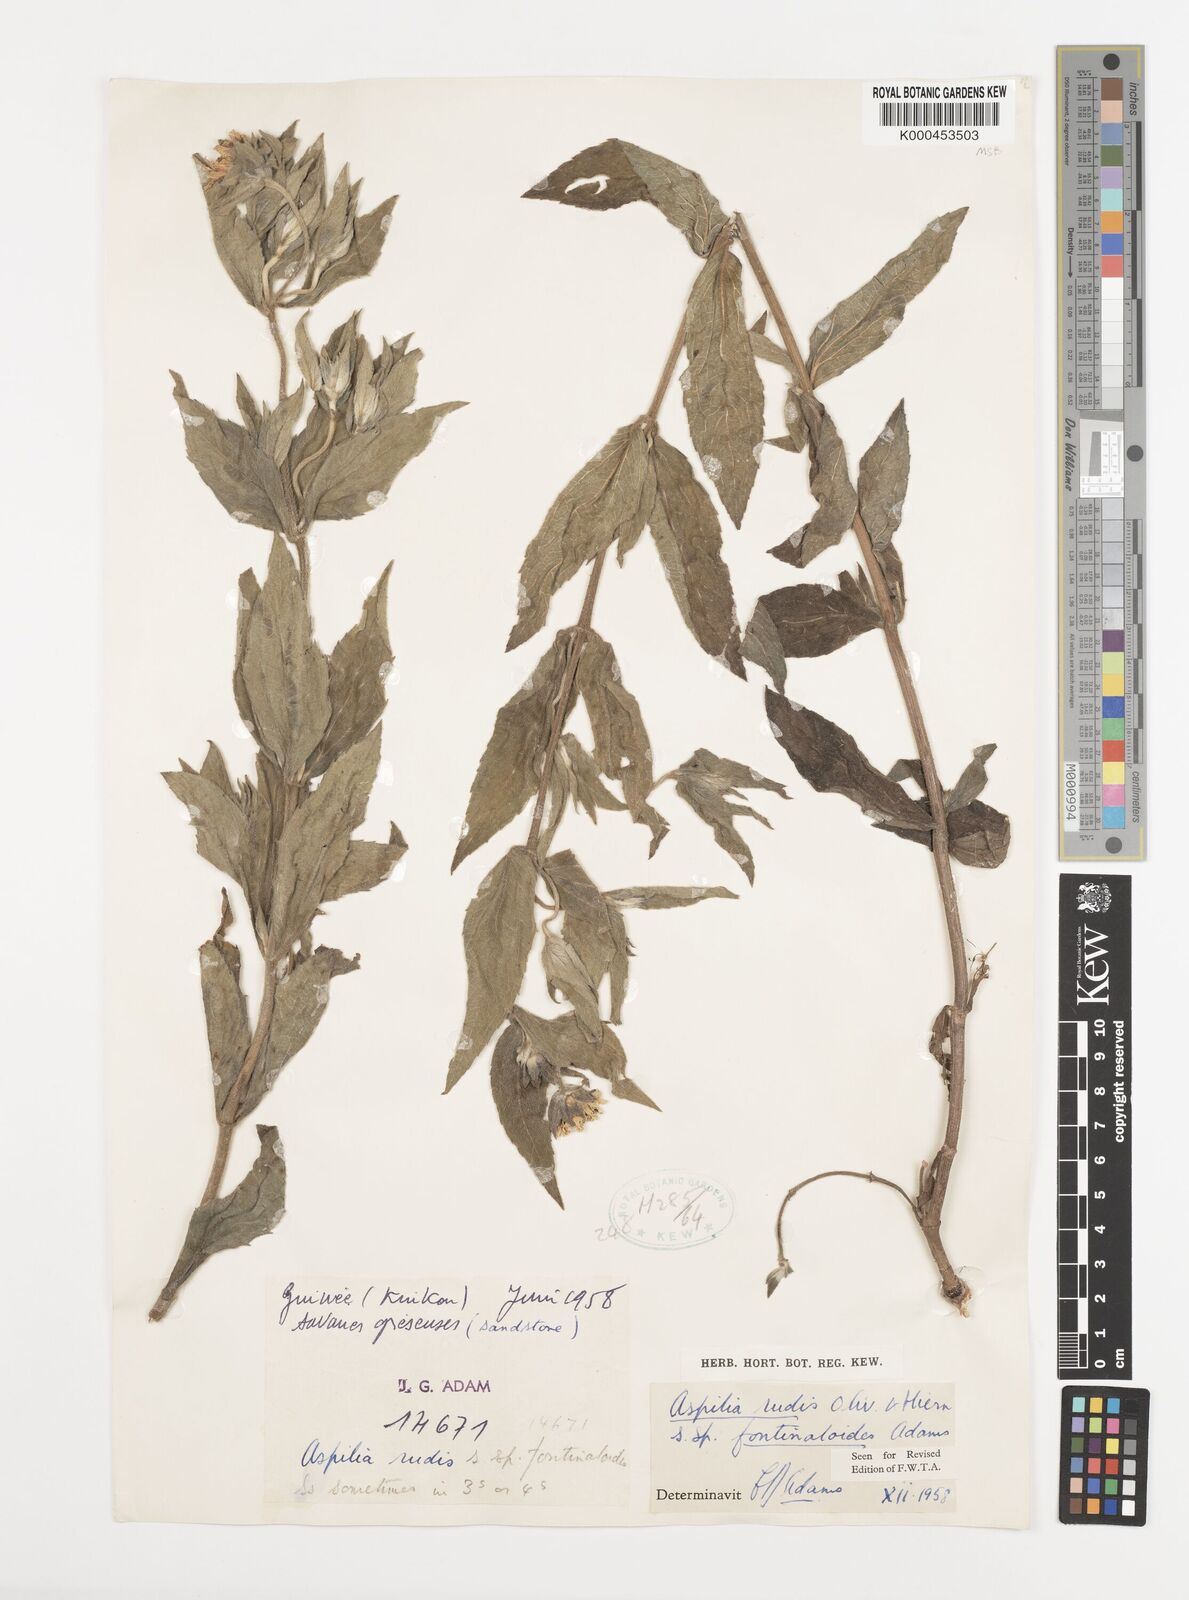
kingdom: Plantae
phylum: Tracheophyta
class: Magnoliopsida
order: Asterales
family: Asteraceae
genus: Aspilia
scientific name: Aspilia rudis
